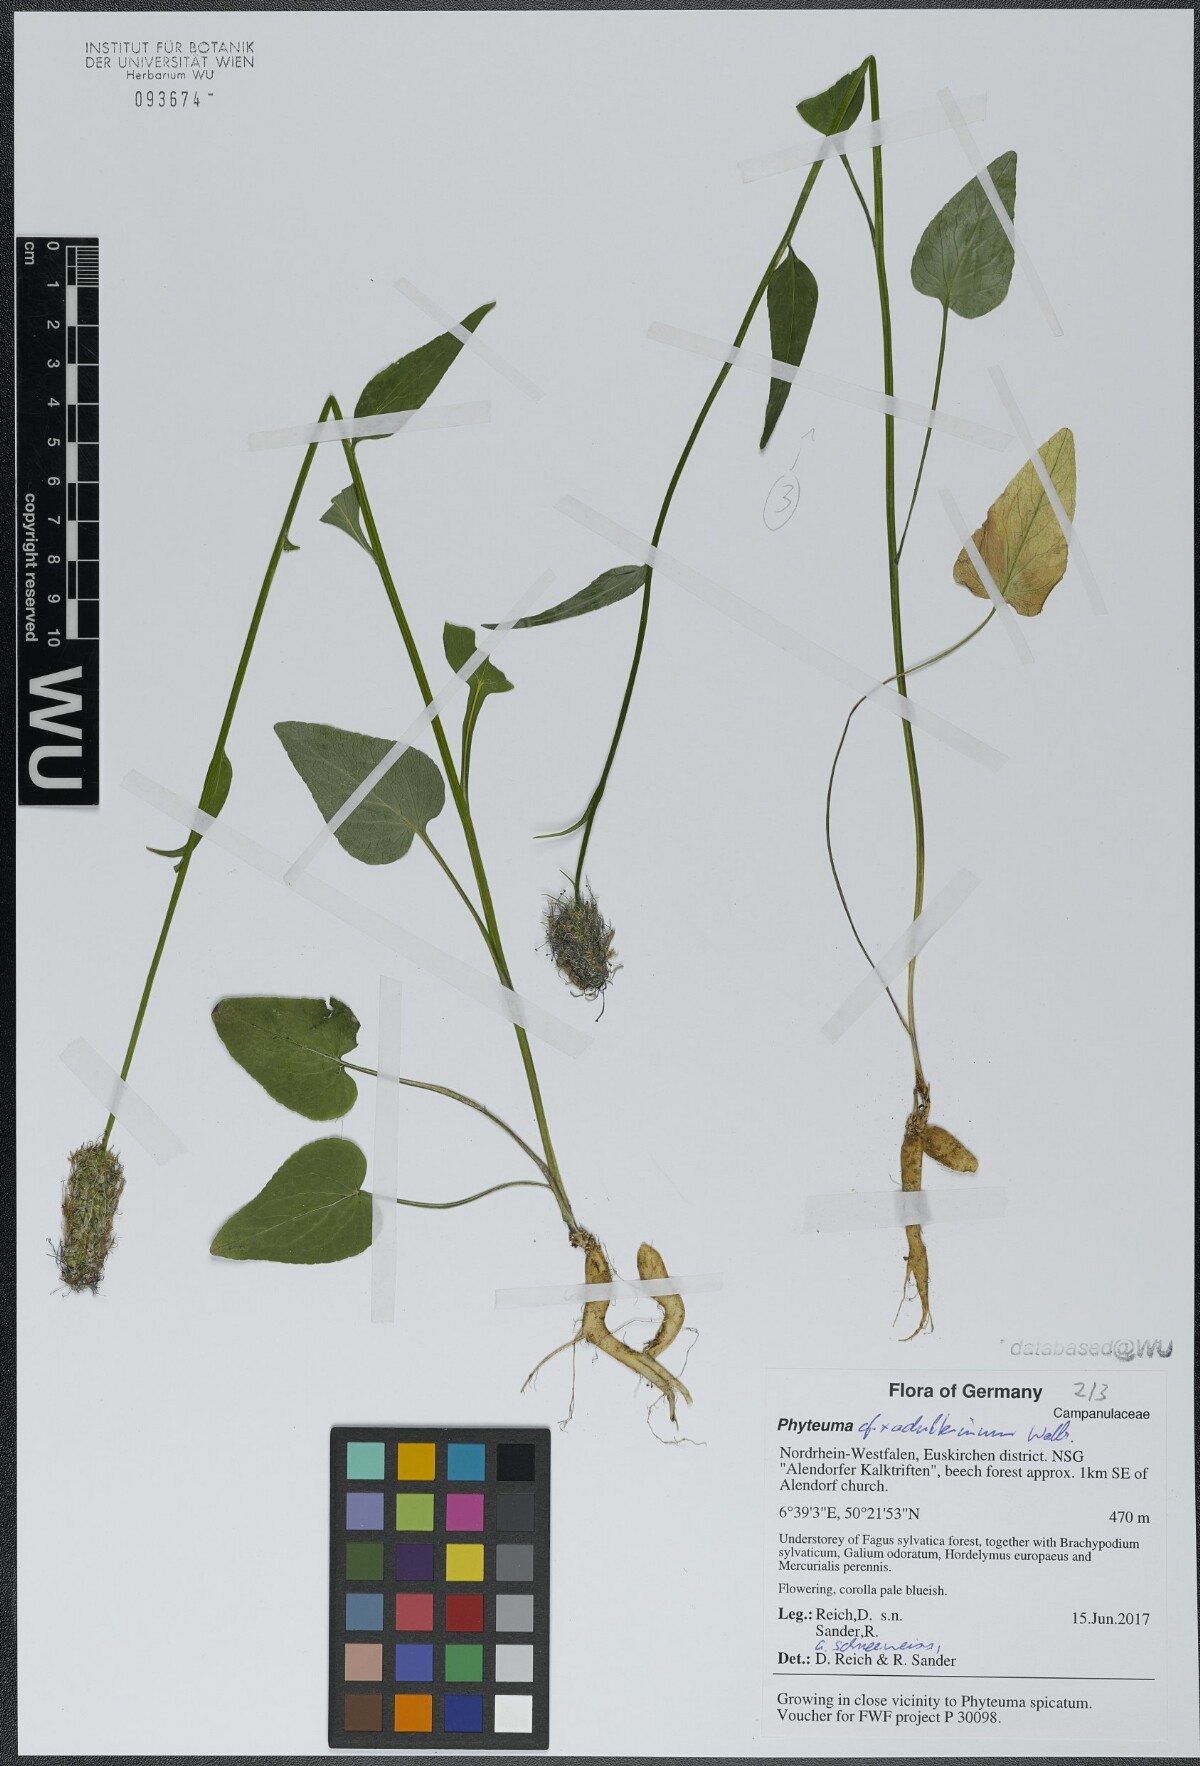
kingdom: Plantae
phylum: Tracheophyta
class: Magnoliopsida
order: Asterales
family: Campanulaceae
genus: Phyteuma
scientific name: Phyteuma
